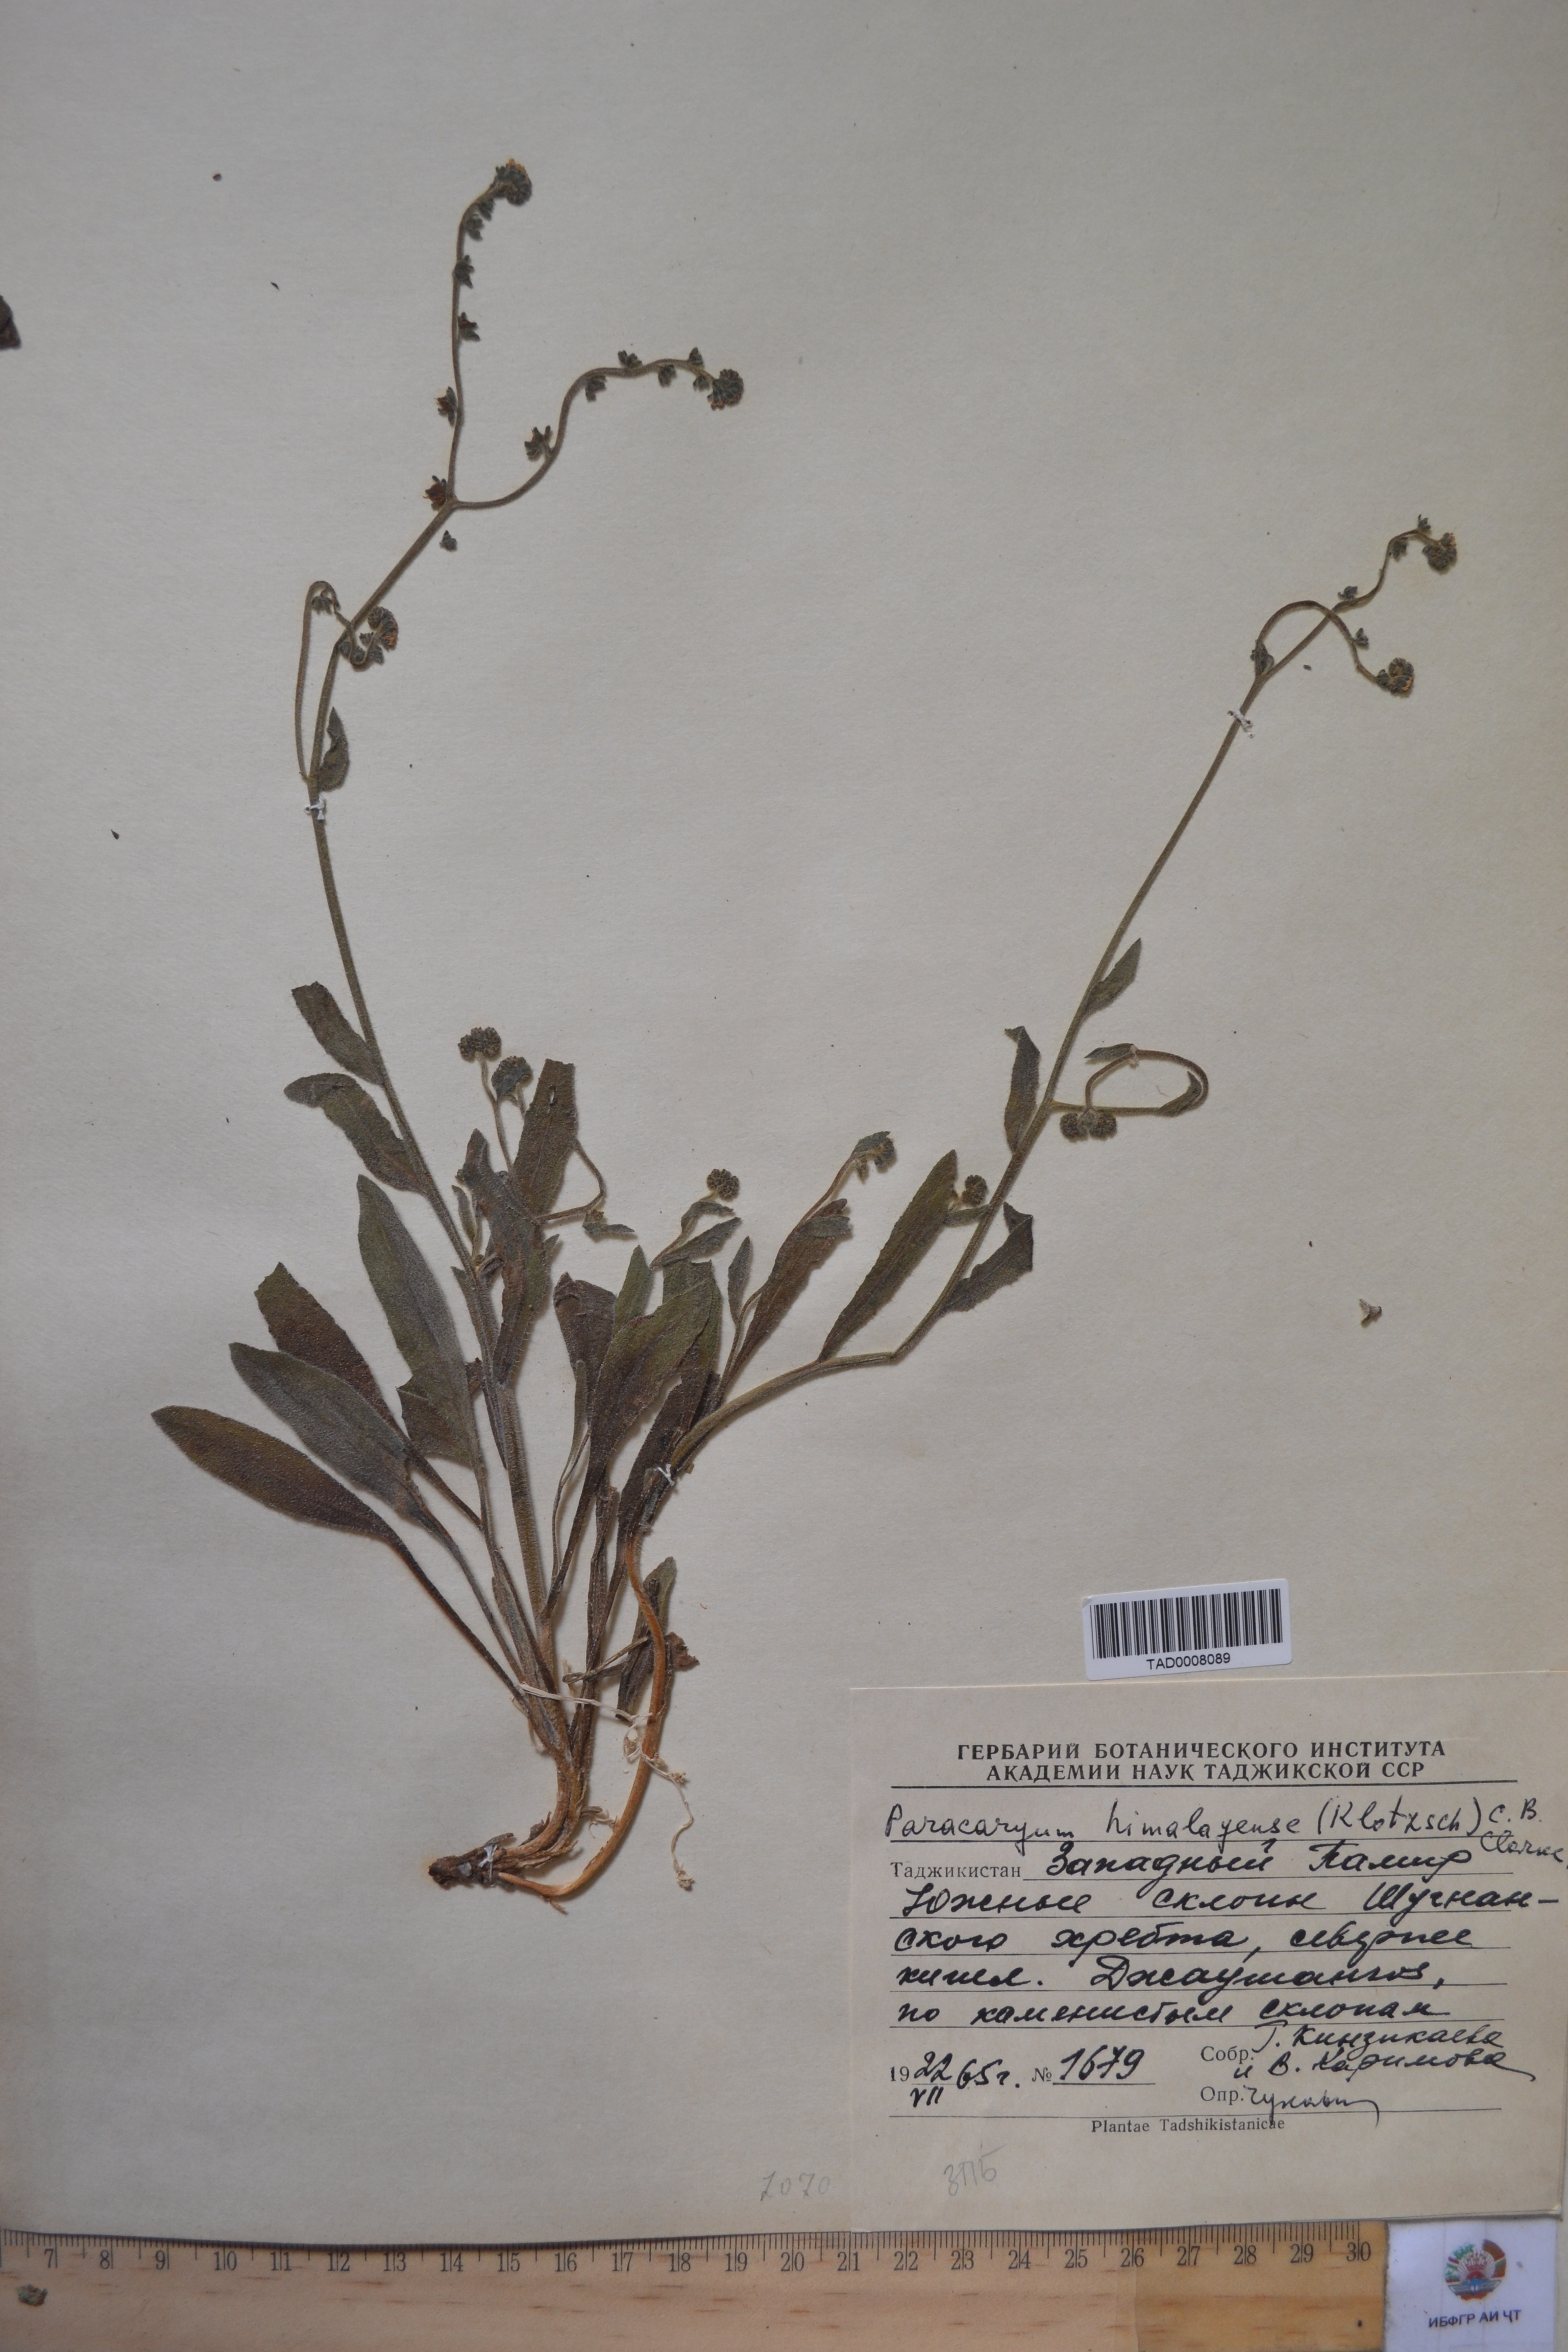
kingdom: Plantae
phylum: Tracheophyta
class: Magnoliopsida
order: Boraginales
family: Boraginaceae
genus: Paracaryum
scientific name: Paracaryum himalayense
